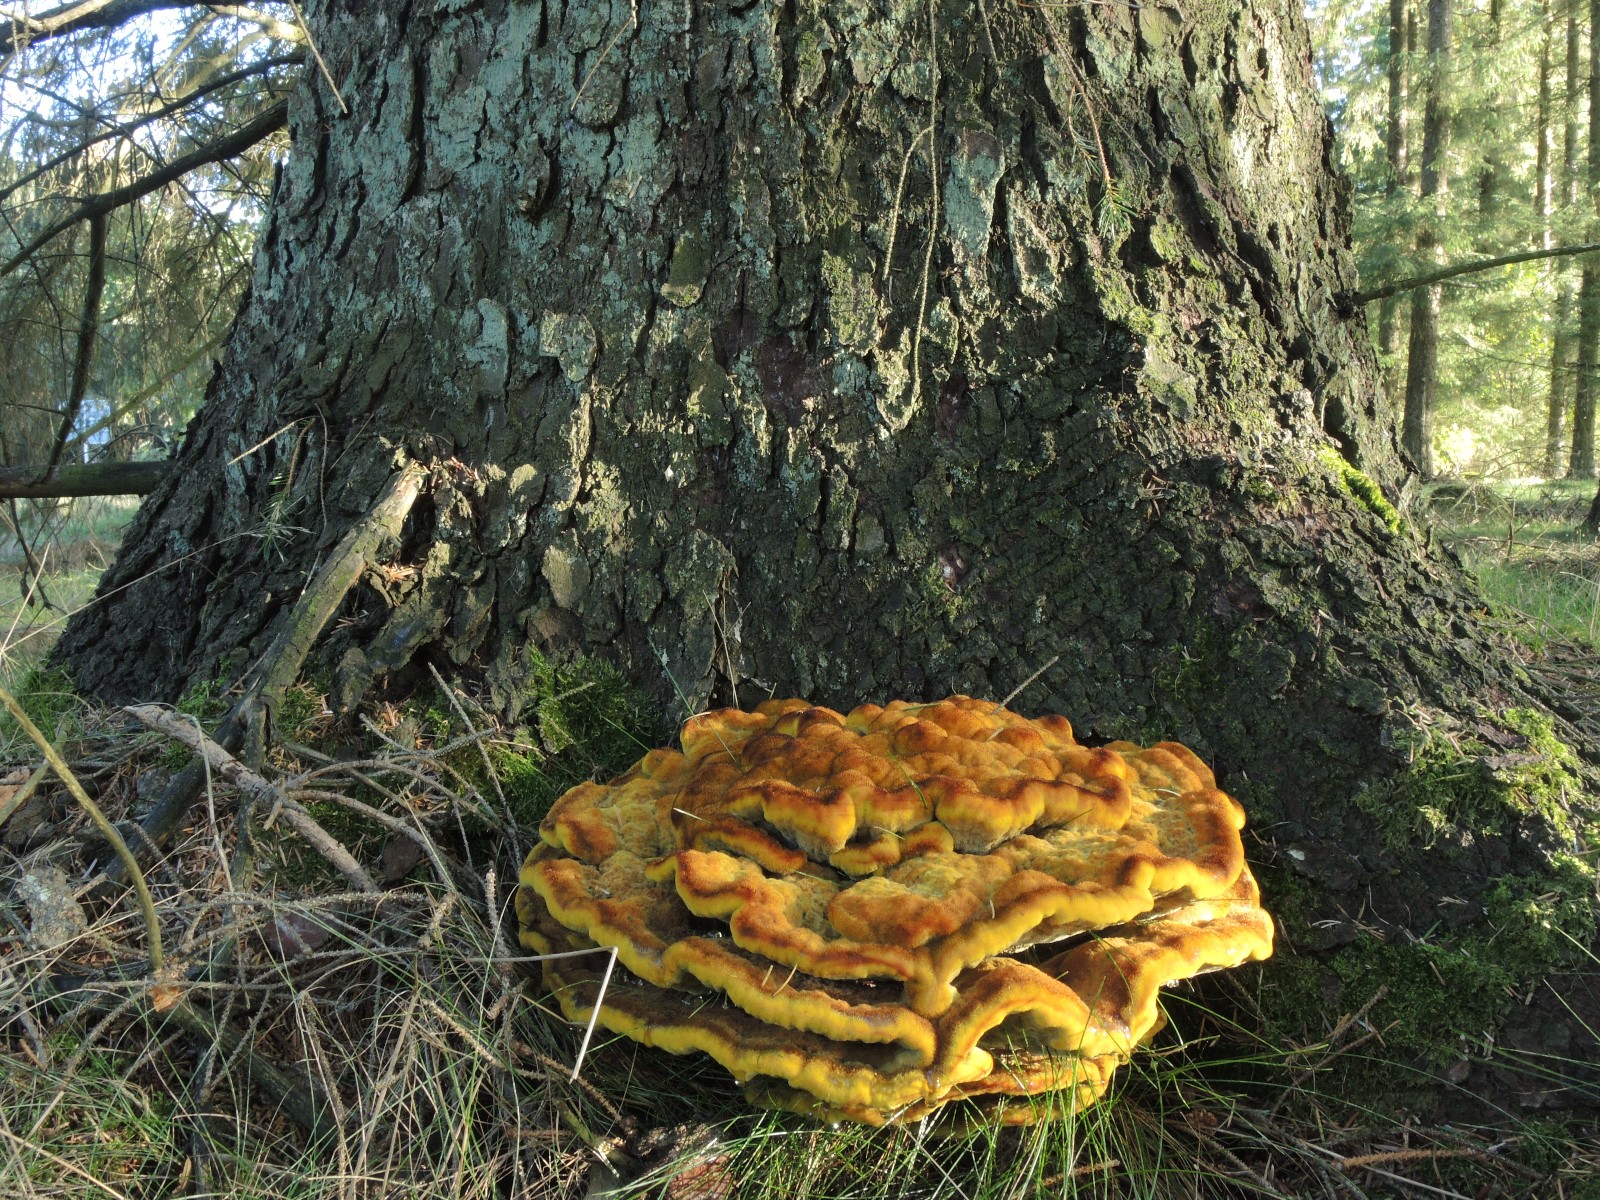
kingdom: Fungi
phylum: Basidiomycota
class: Agaricomycetes
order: Polyporales
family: Laetiporaceae
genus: Phaeolus
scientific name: Phaeolus schweinitzii
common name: brunporesvamp
